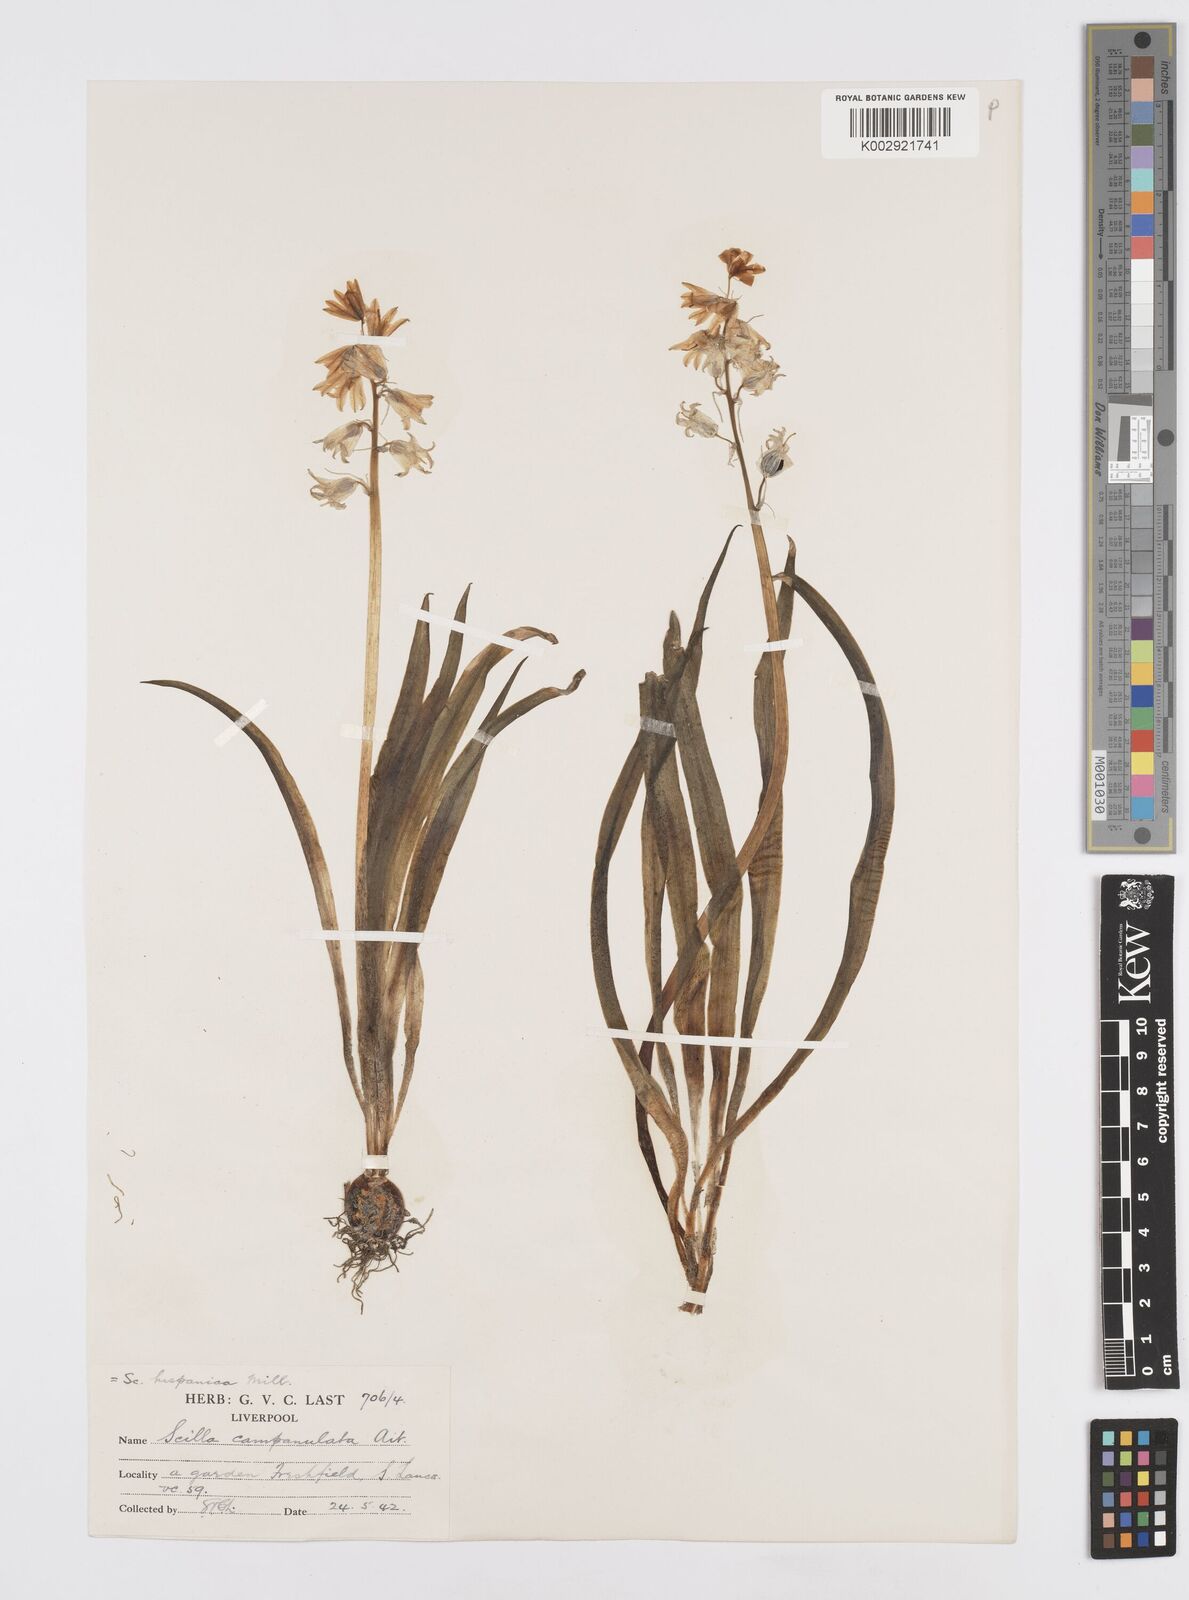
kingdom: Plantae
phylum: Tracheophyta
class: Liliopsida
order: Asparagales
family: Asparagaceae
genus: Hyacinthoides
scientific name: Hyacinthoides hispanica
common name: Spanish bluebell
